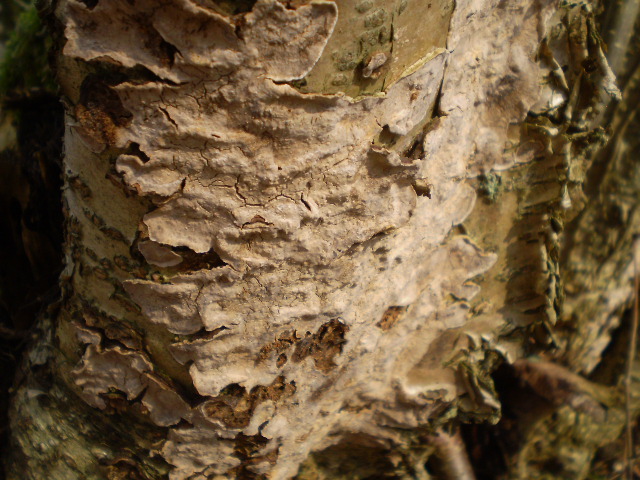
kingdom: Fungi
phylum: Basidiomycota
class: Agaricomycetes
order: Russulales
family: Stereaceae
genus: Stereum
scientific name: Stereum rugosum
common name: rynket lædersvamp
